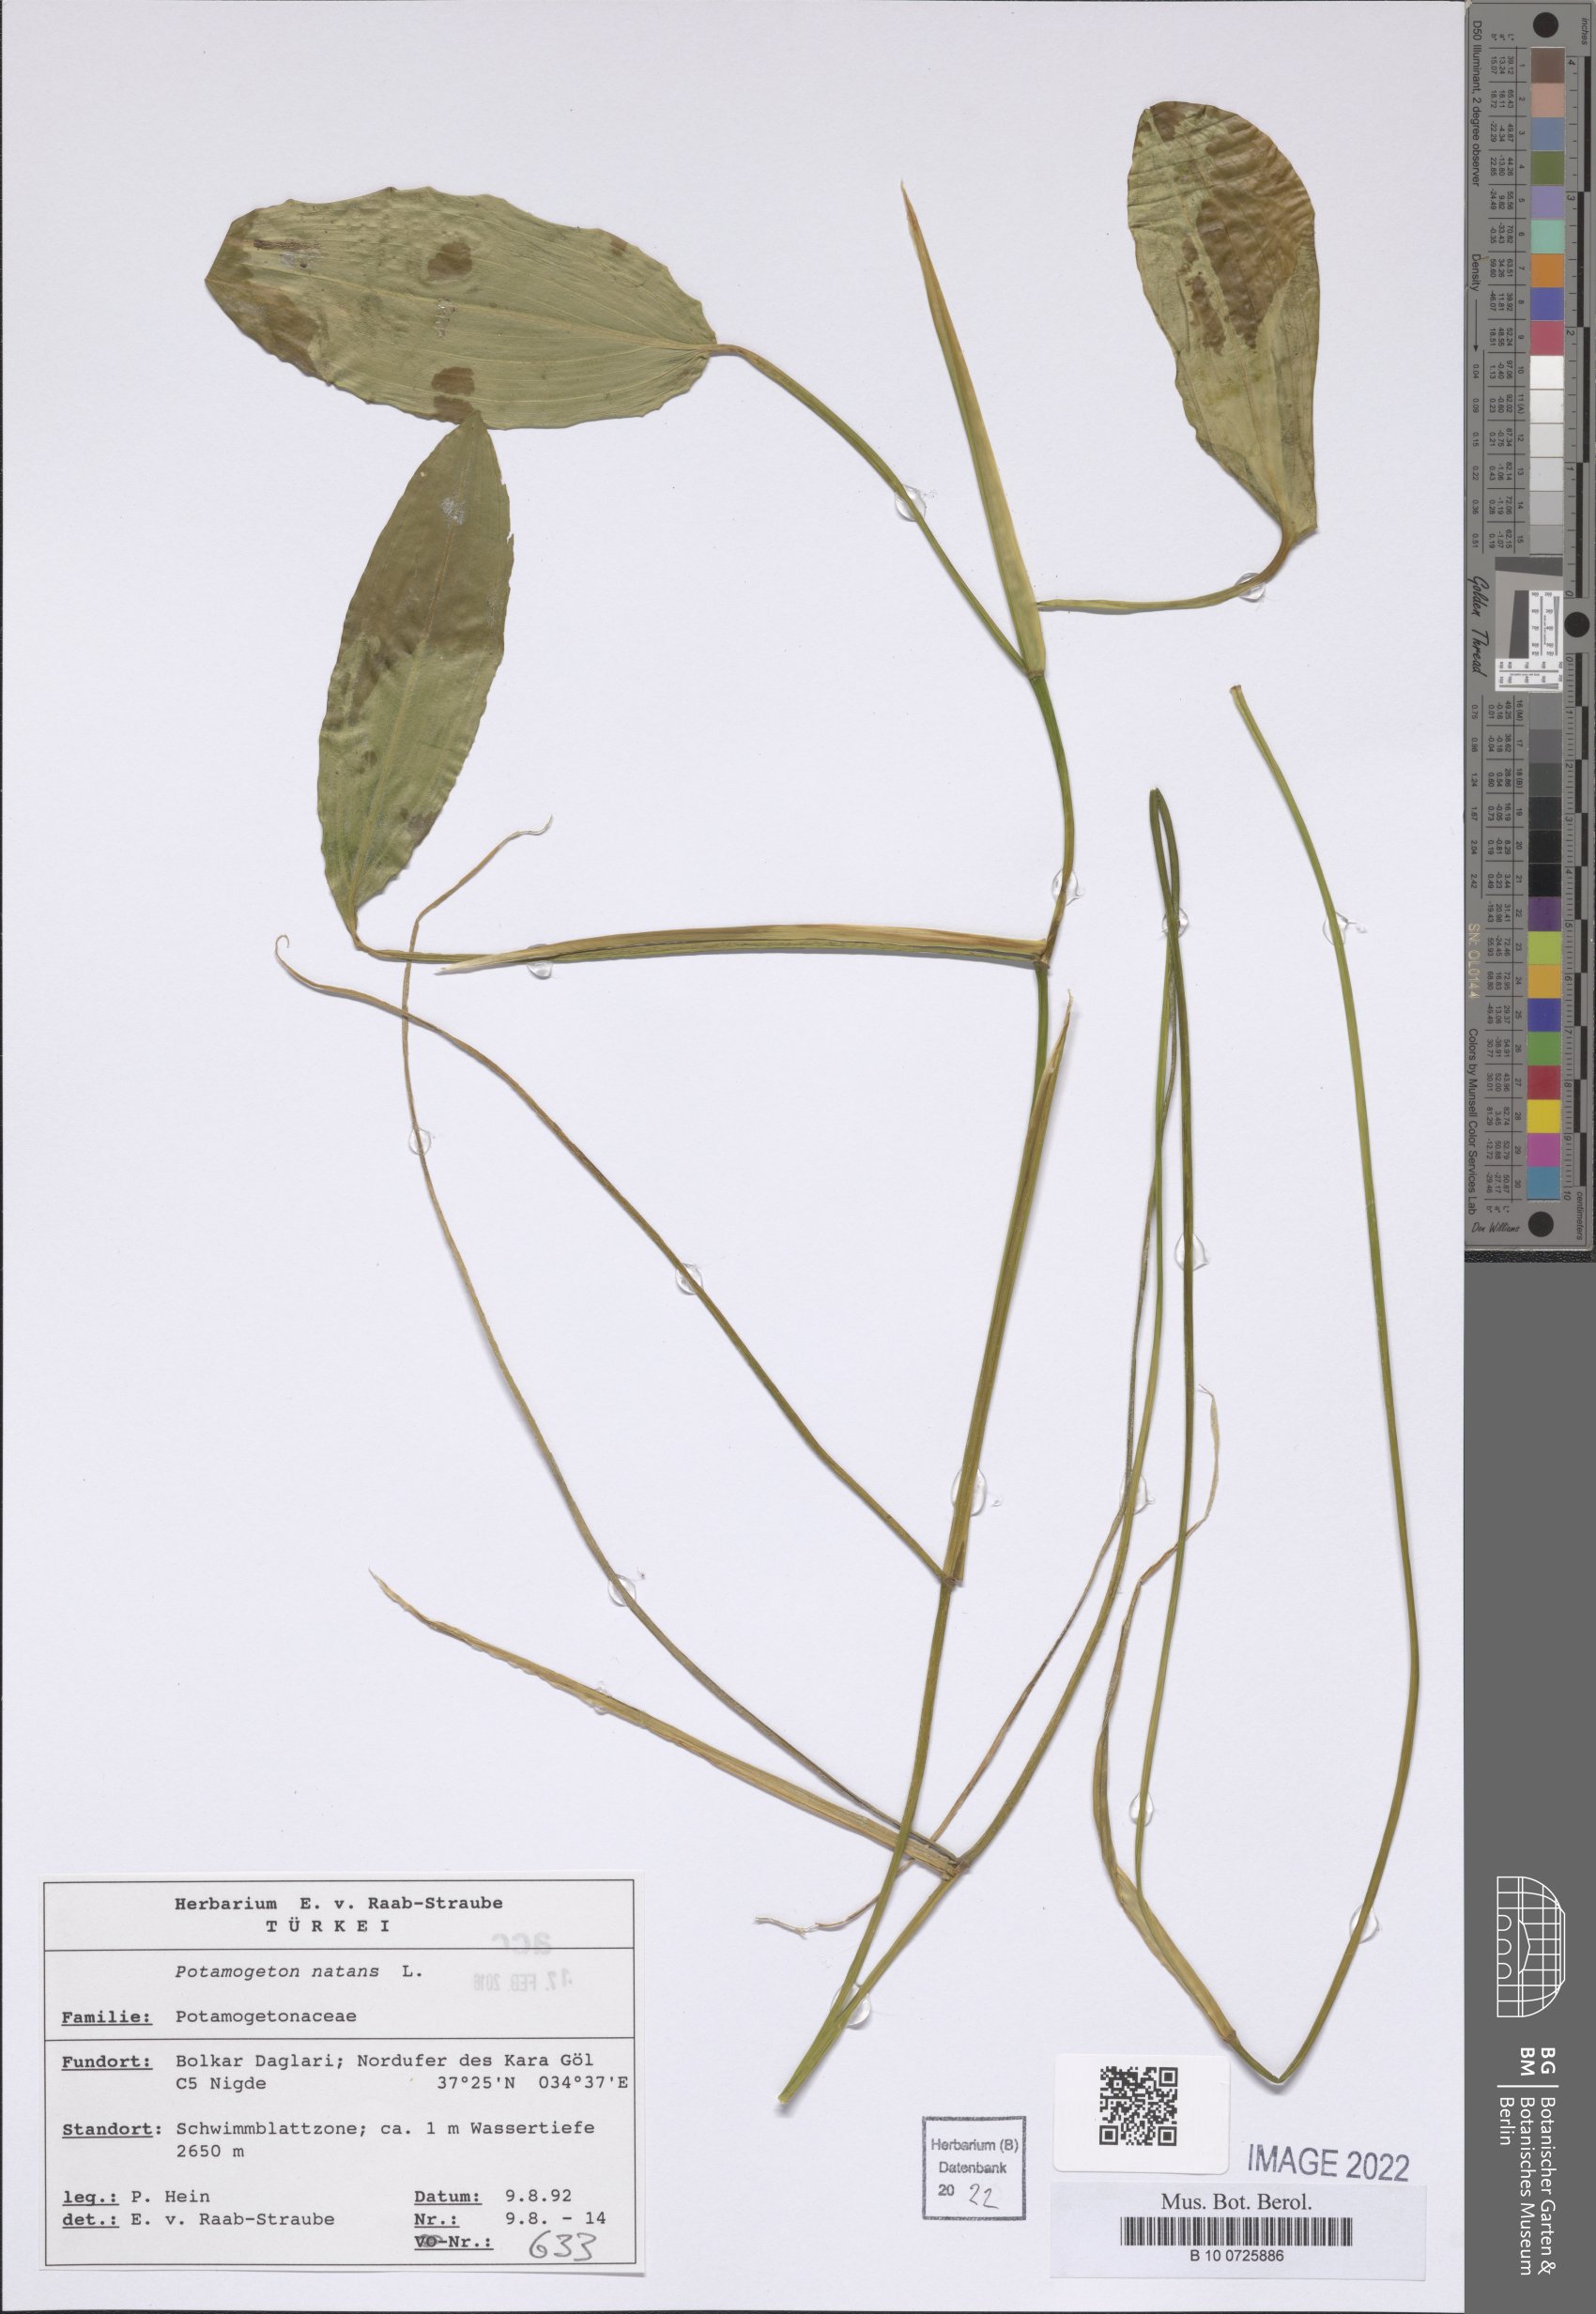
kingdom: Plantae
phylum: Tracheophyta
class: Liliopsida
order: Alismatales
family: Potamogetonaceae
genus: Potamogeton
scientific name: Potamogeton natans
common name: Broad-leaved pondweed
